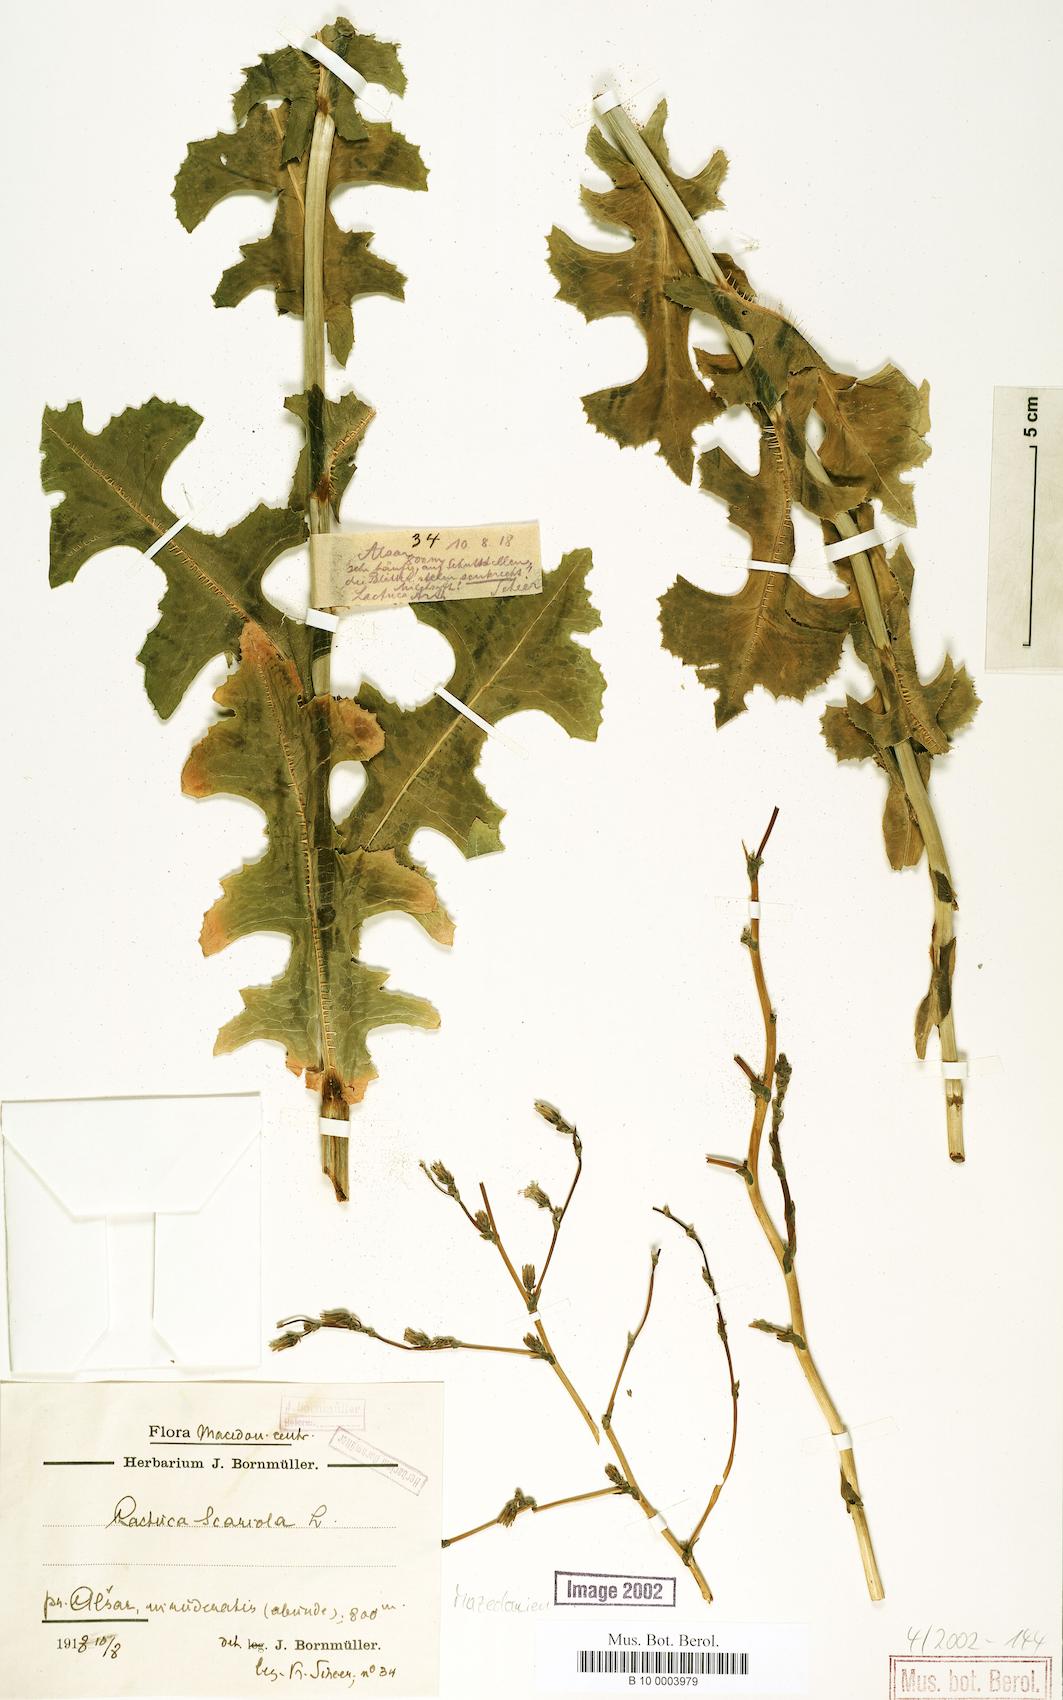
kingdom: Plantae
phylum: Tracheophyta
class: Magnoliopsida
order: Asterales
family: Asteraceae
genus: Lactuca
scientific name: Lactuca serriola
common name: Prickly lettuce
